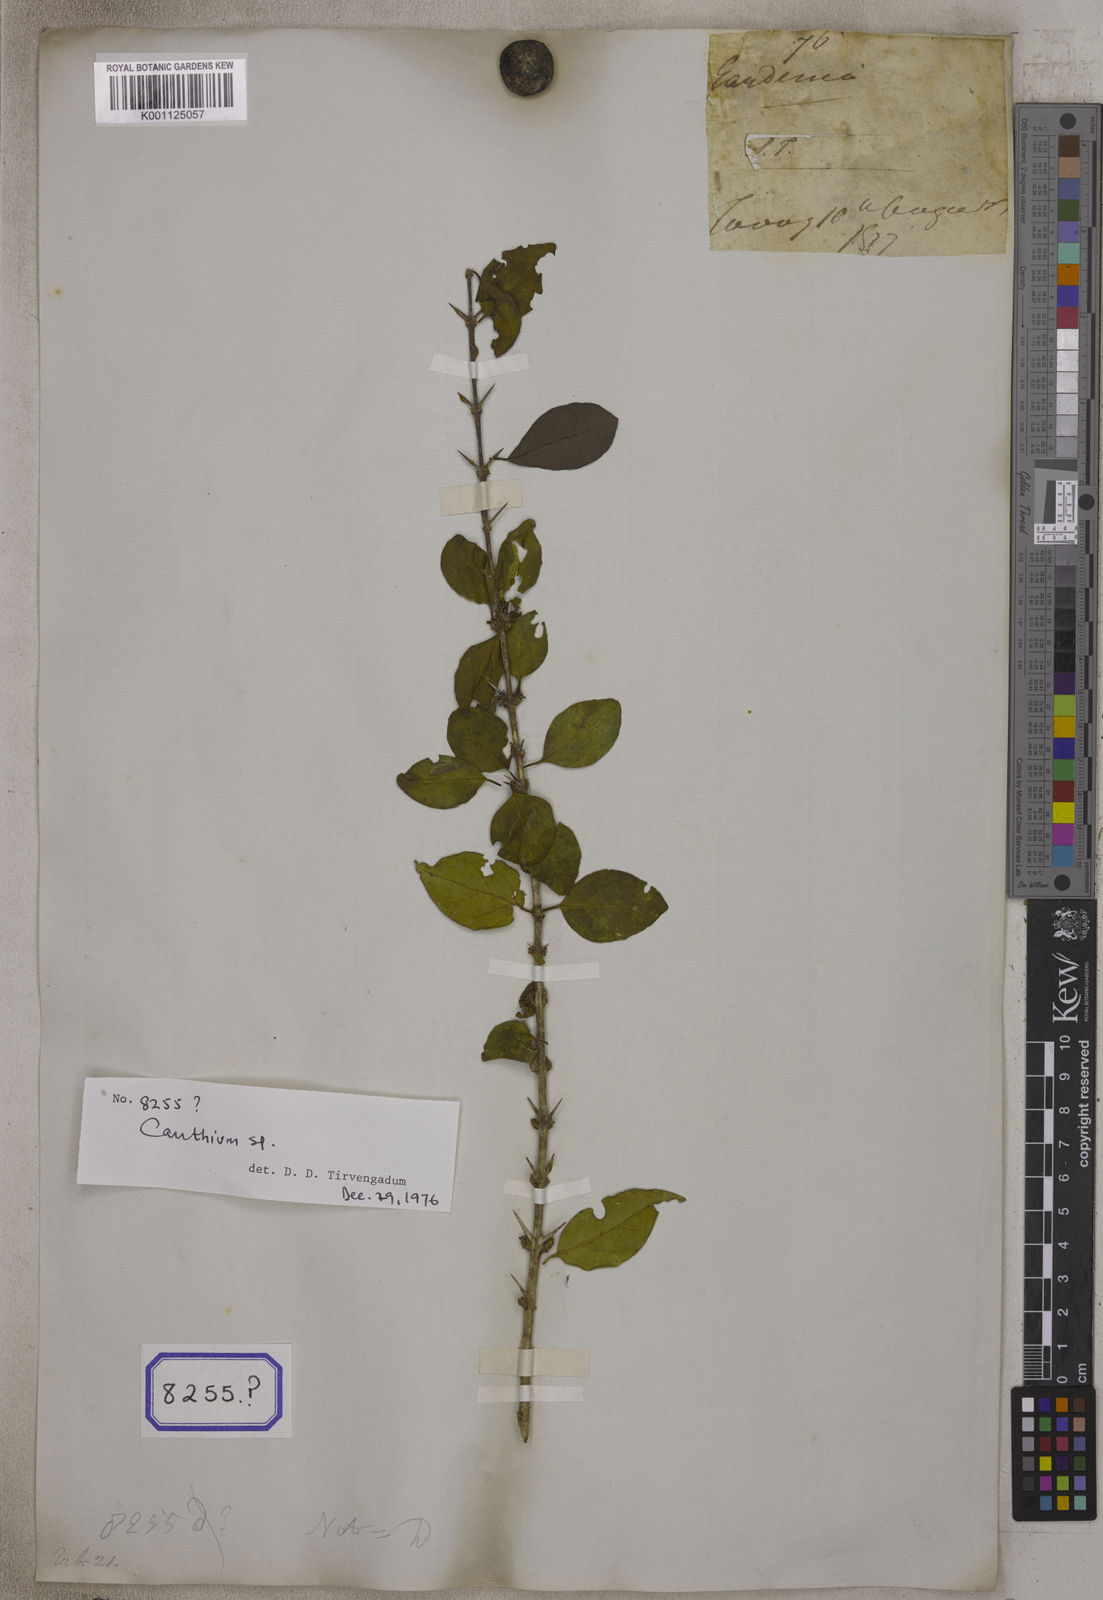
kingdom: Plantae
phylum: Tracheophyta
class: Magnoliopsida
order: Gentianales
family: Rubiaceae
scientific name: Rubiaceae
